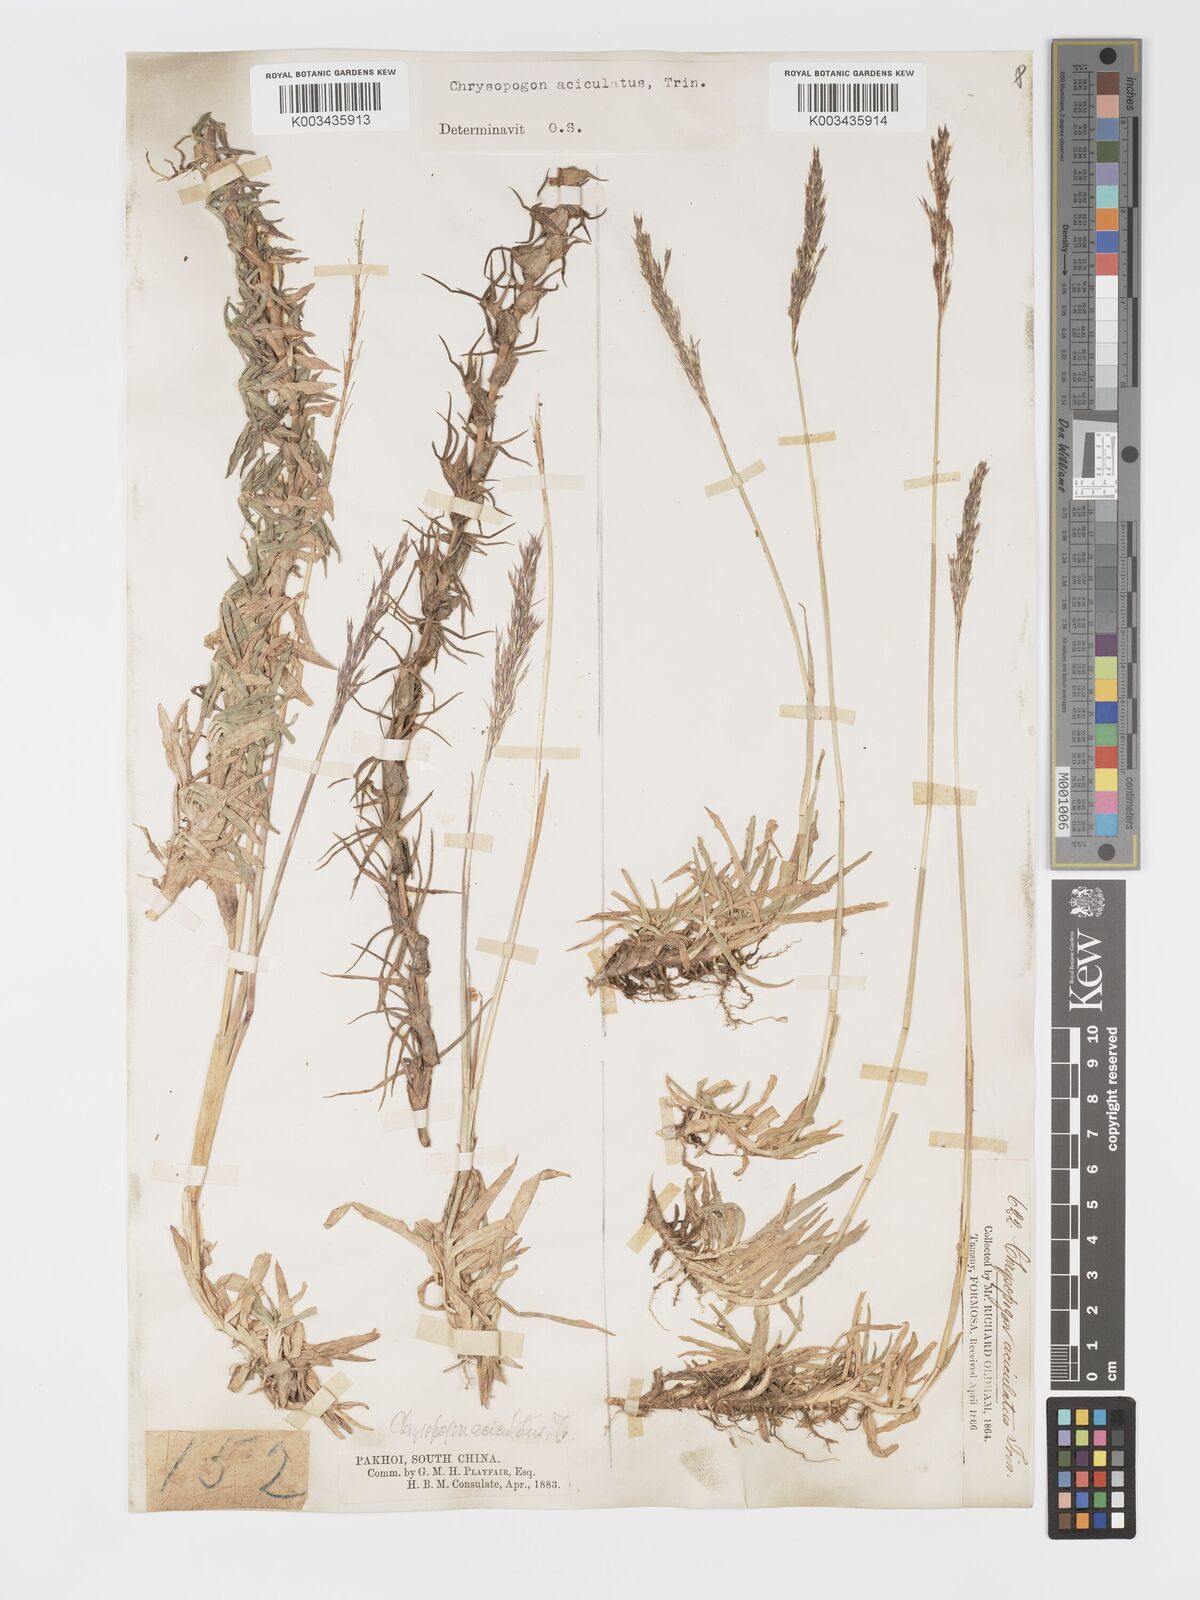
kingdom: Plantae
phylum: Tracheophyta
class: Liliopsida
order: Poales
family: Poaceae
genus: Chrysopogon
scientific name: Chrysopogon aciculatus
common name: Pilipiliula
